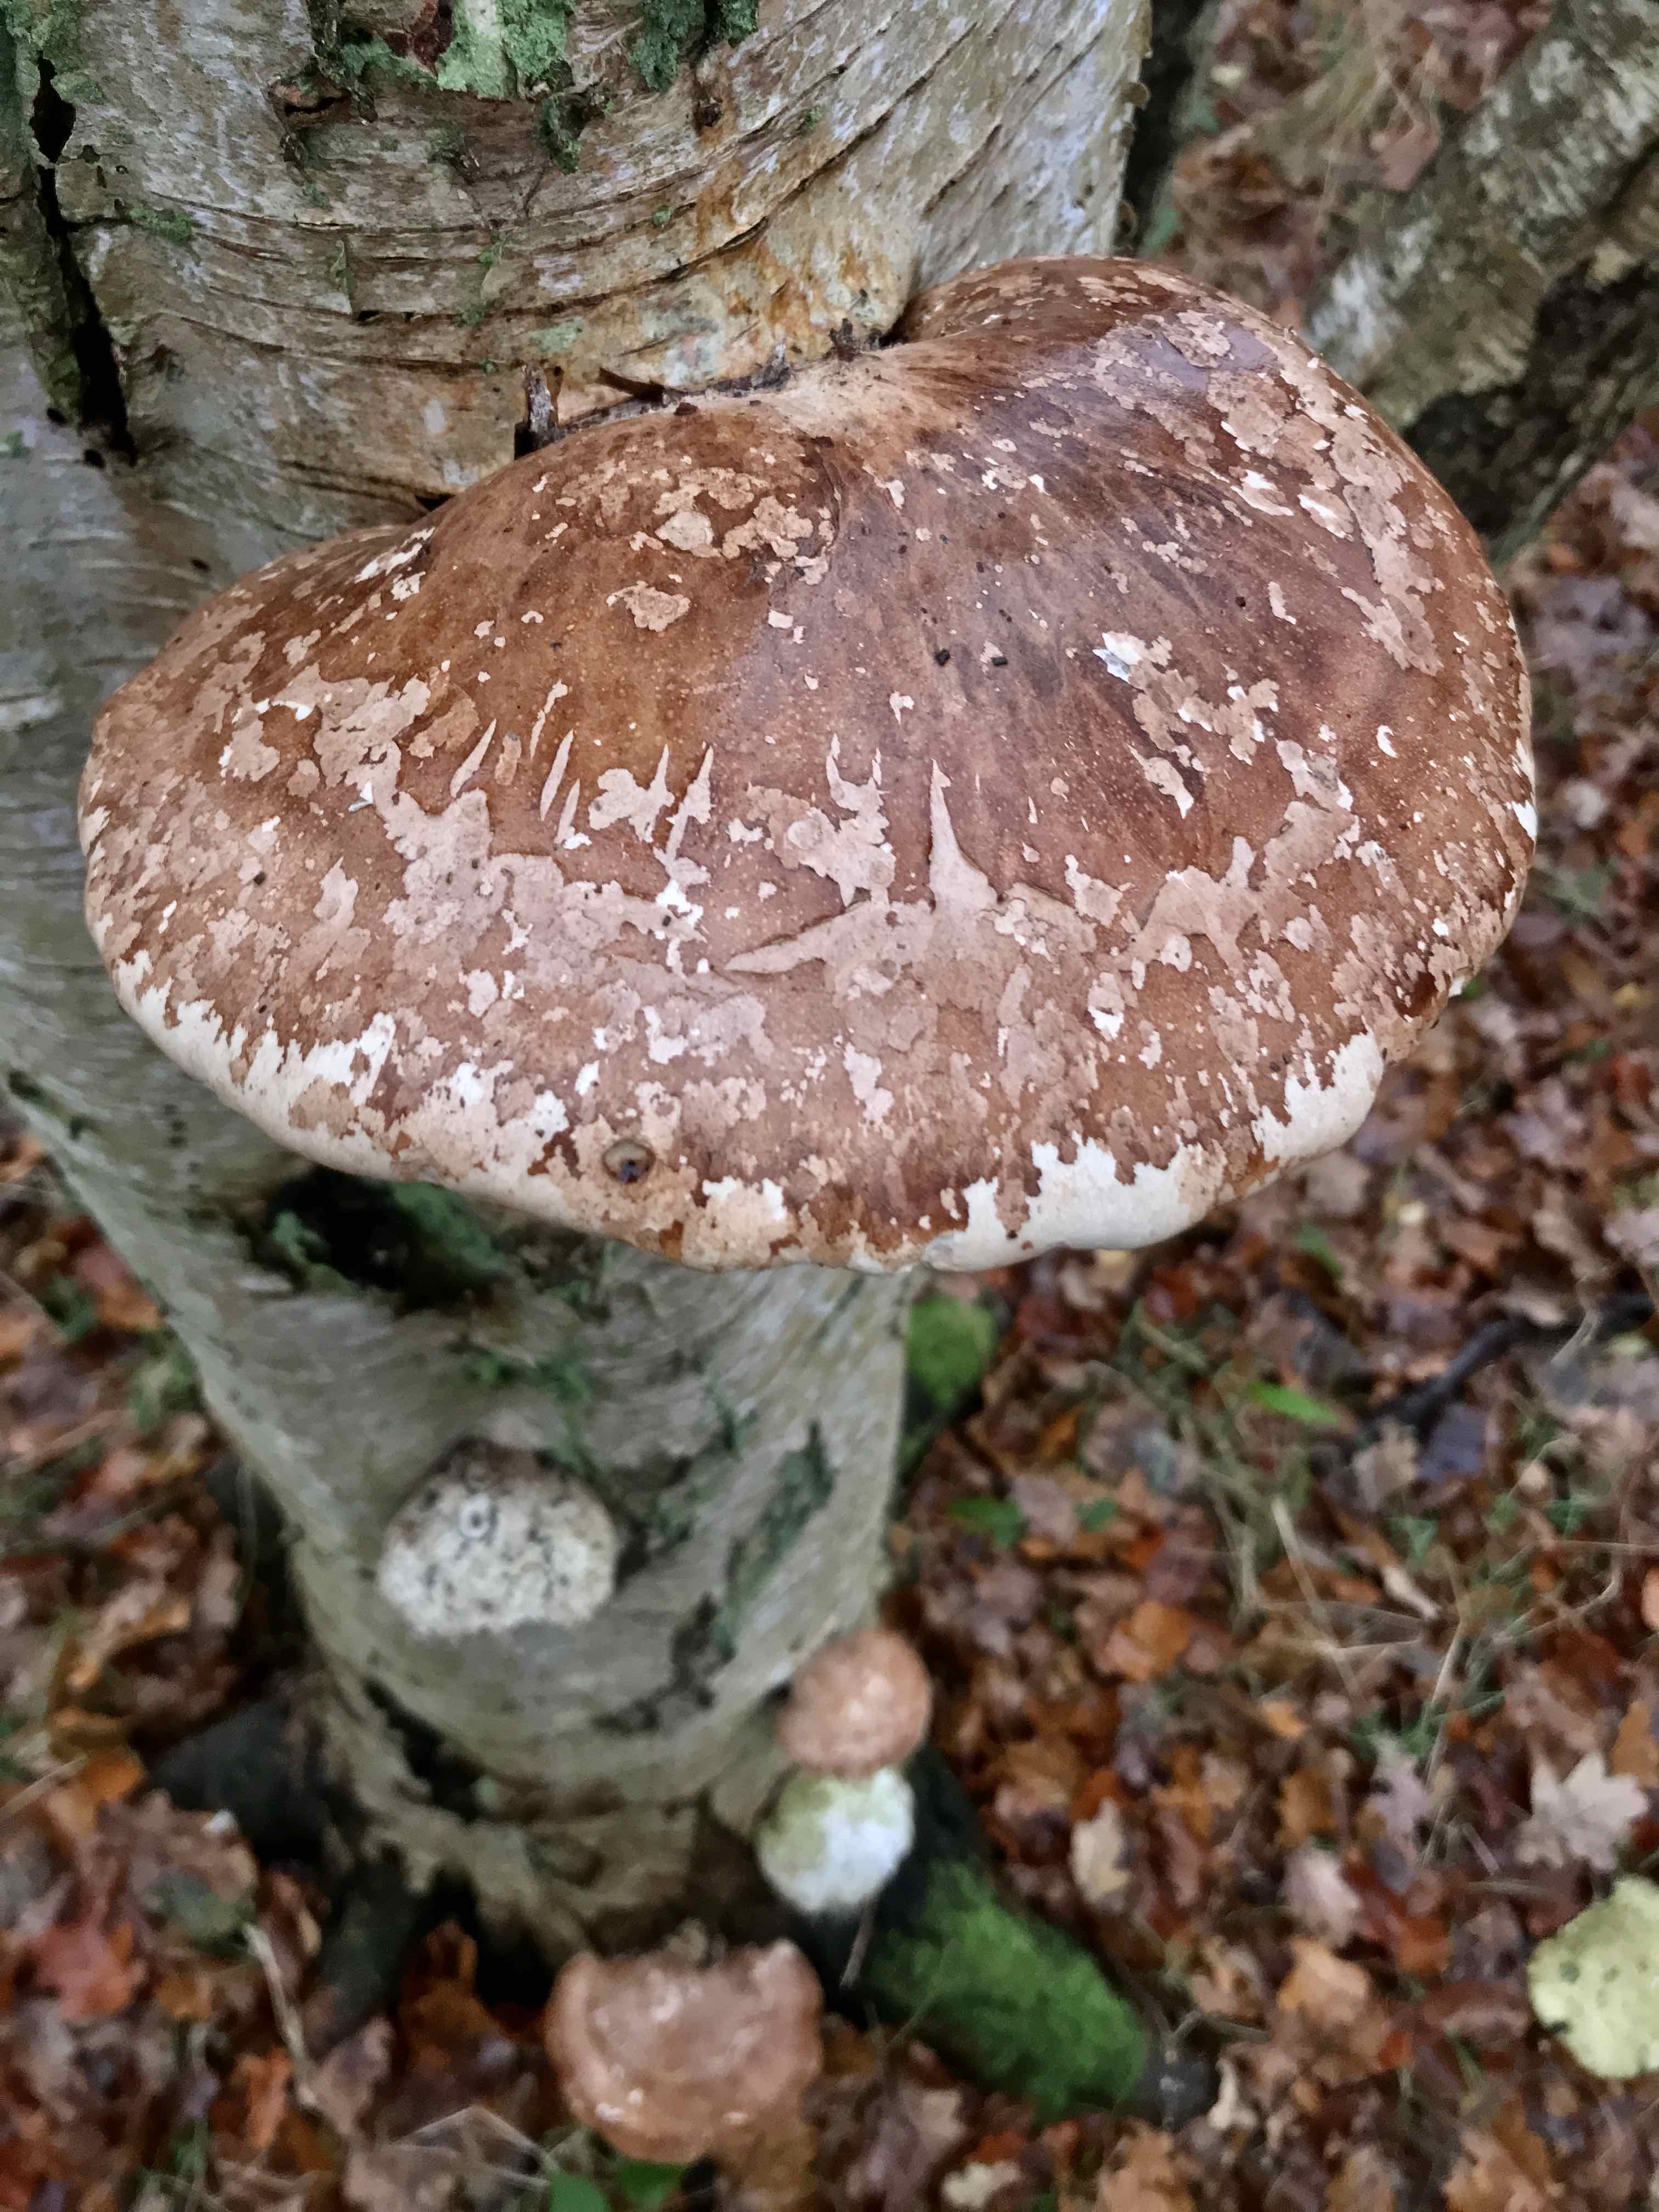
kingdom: Fungi
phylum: Basidiomycota
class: Agaricomycetes
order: Polyporales
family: Fomitopsidaceae
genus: Fomitopsis
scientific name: Fomitopsis betulina
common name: birkeporesvamp
